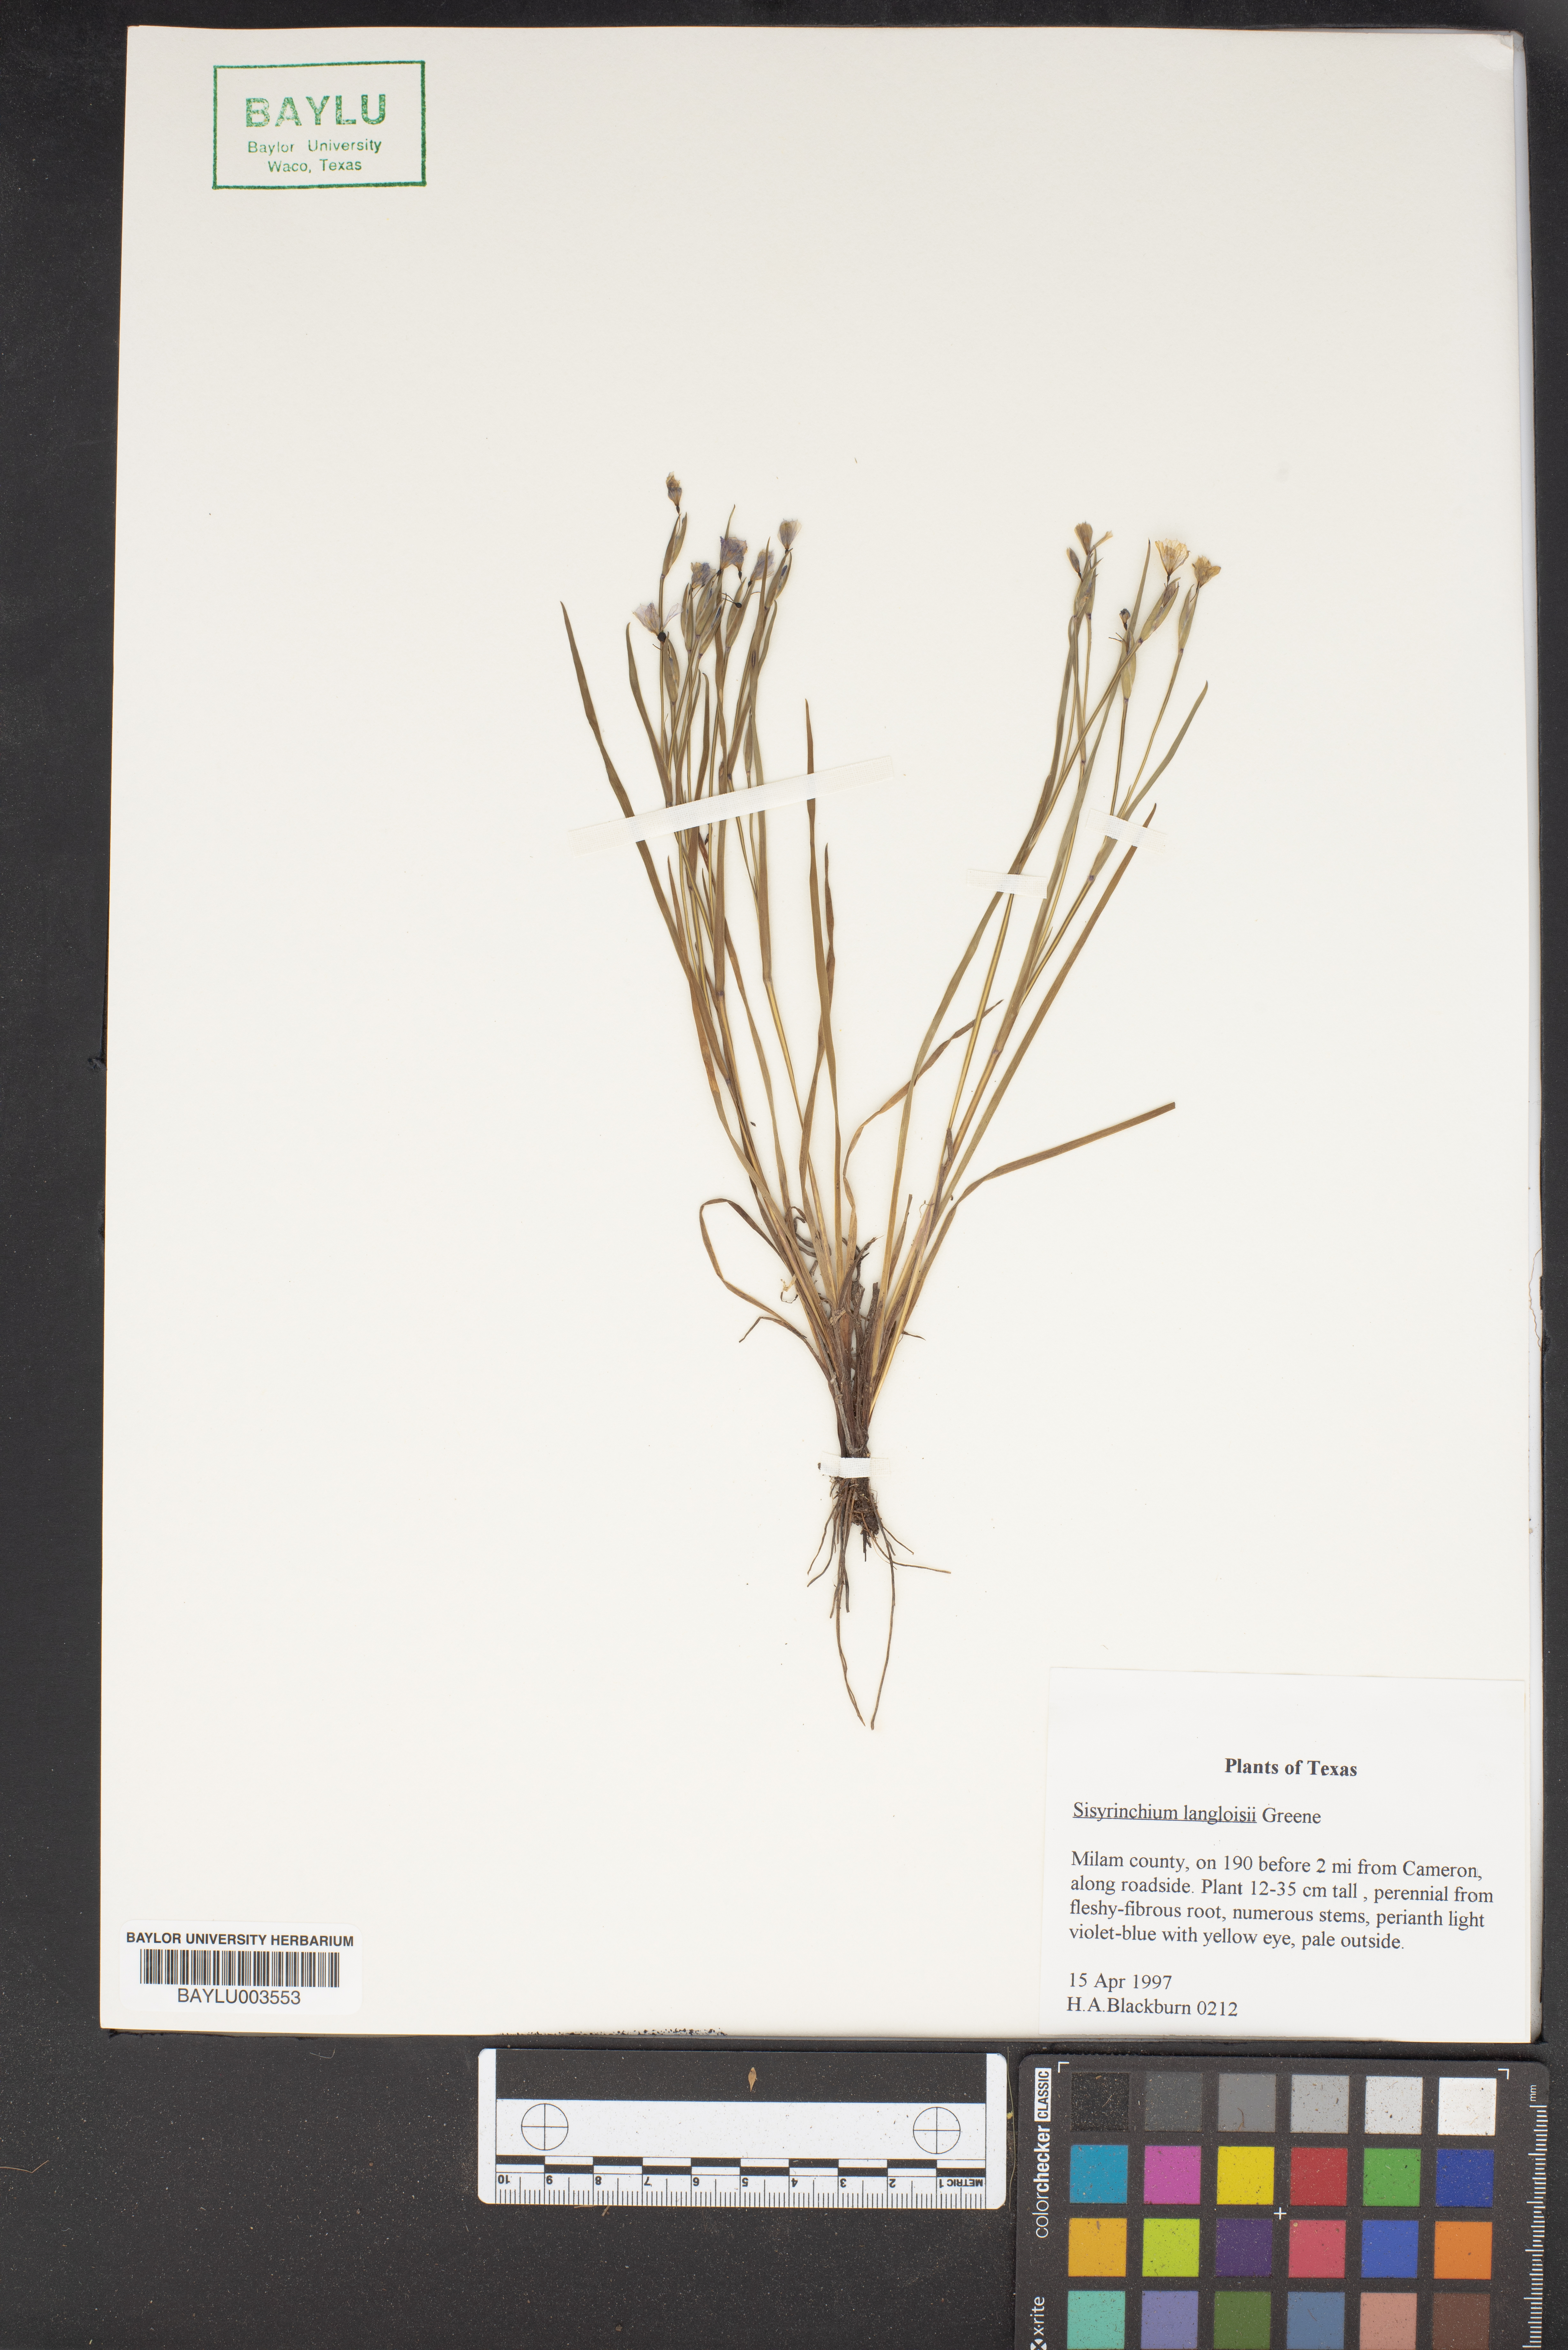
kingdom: Plantae
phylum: Tracheophyta
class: Liliopsida
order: Asparagales
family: Iridaceae
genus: Sisyrinchium
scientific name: Sisyrinchium langloisii
